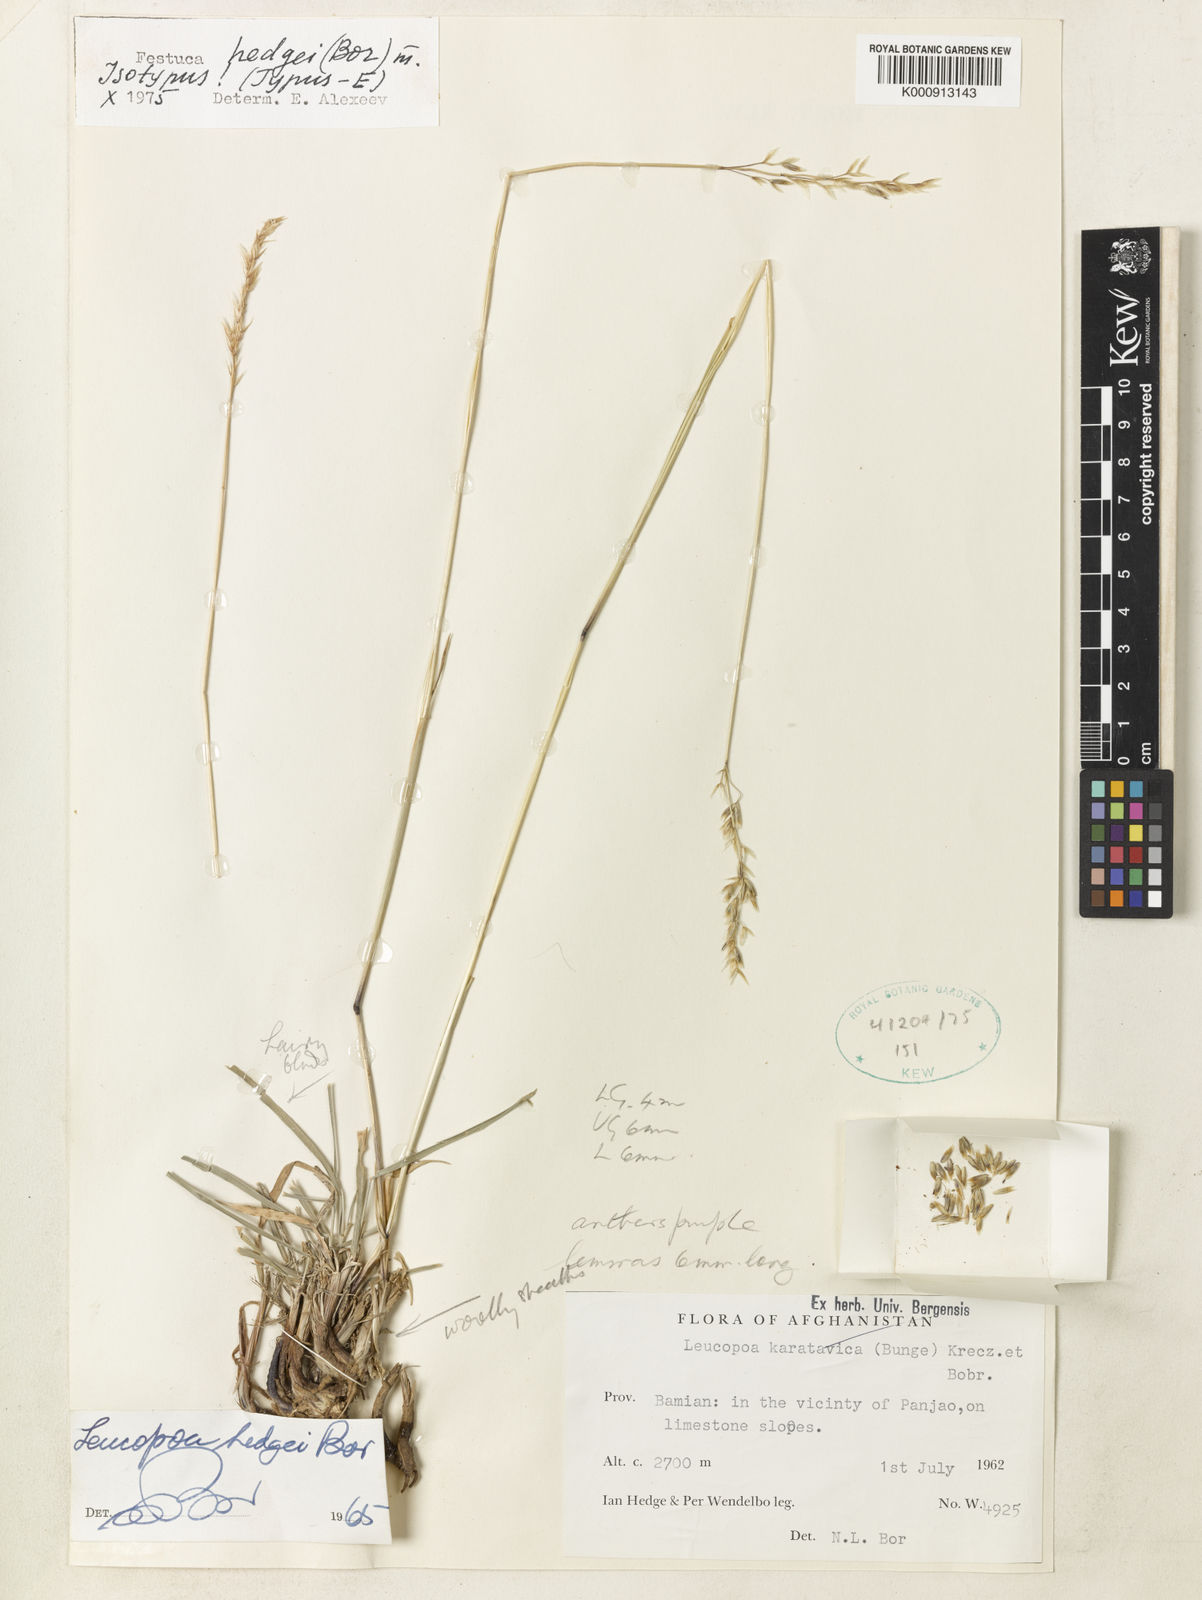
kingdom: Plantae
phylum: Tracheophyta
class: Liliopsida
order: Poales
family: Poaceae
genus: Festuca
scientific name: Festuca hedgei
